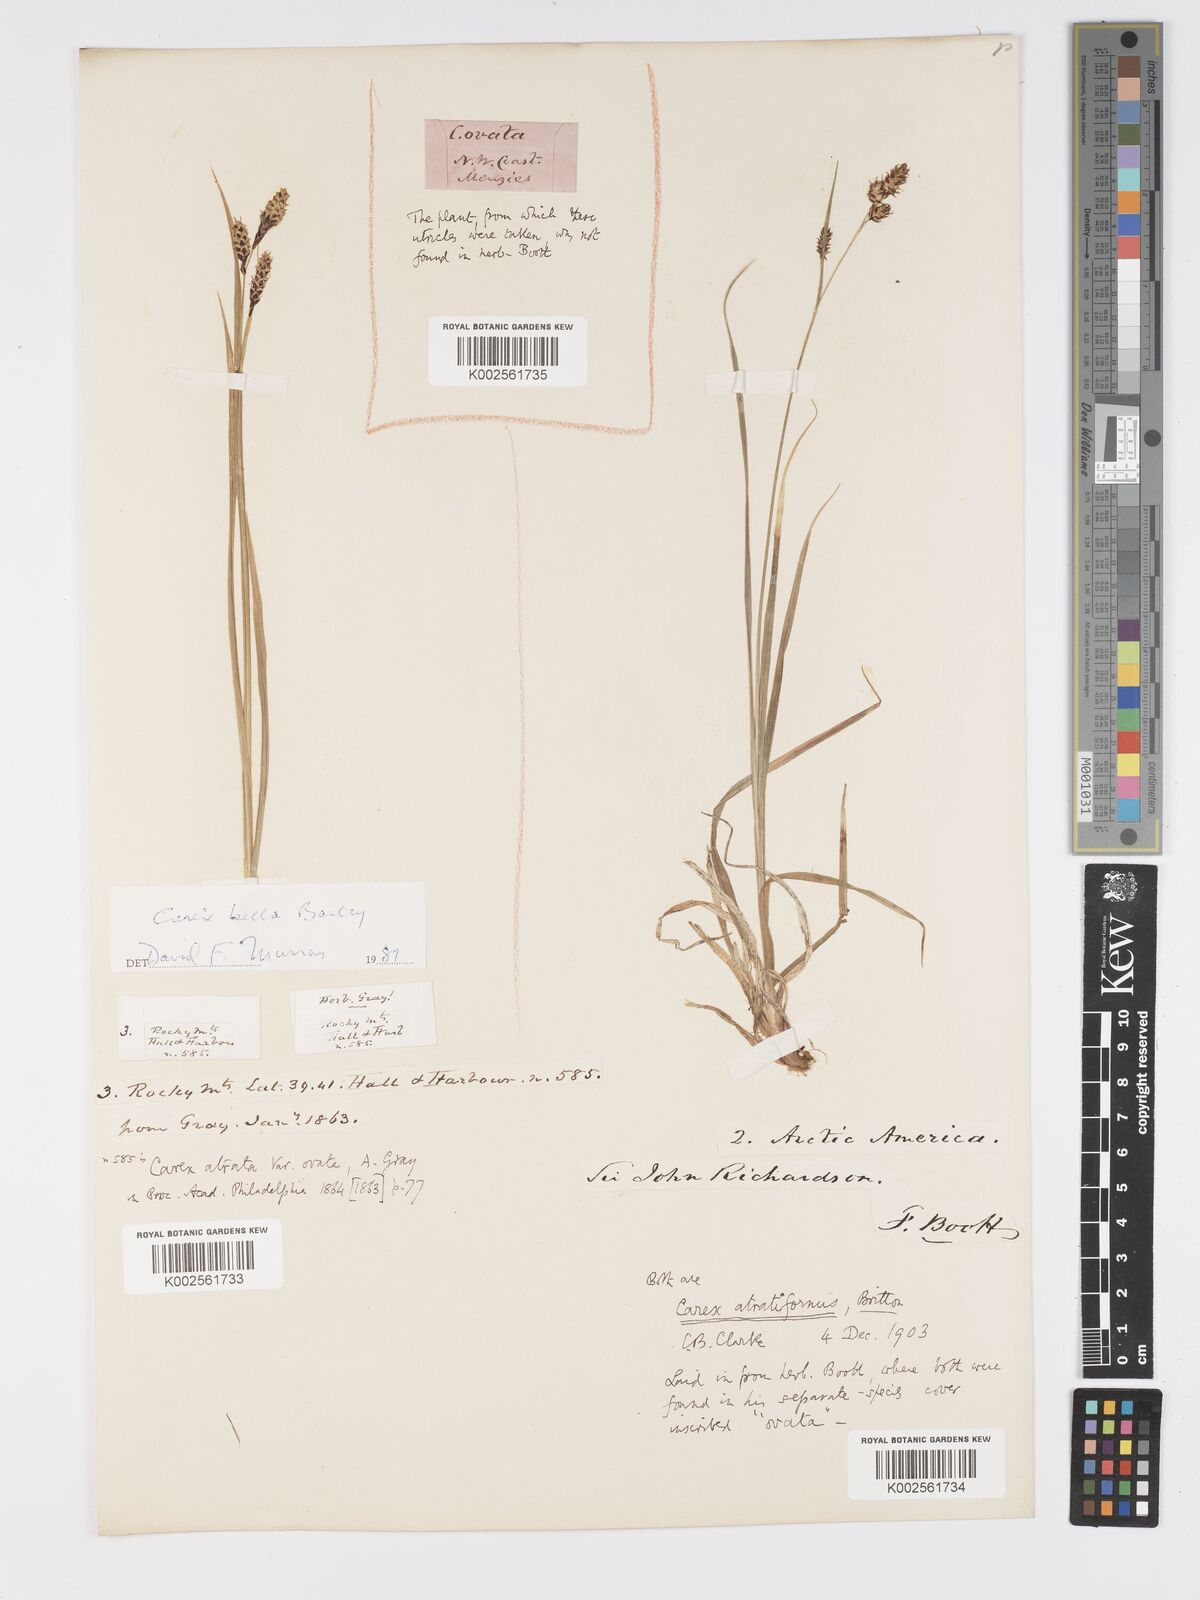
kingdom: Plantae
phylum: Tracheophyta
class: Liliopsida
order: Poales
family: Cyperaceae
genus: Carex
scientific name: Carex atratiformis
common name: Black sedge
